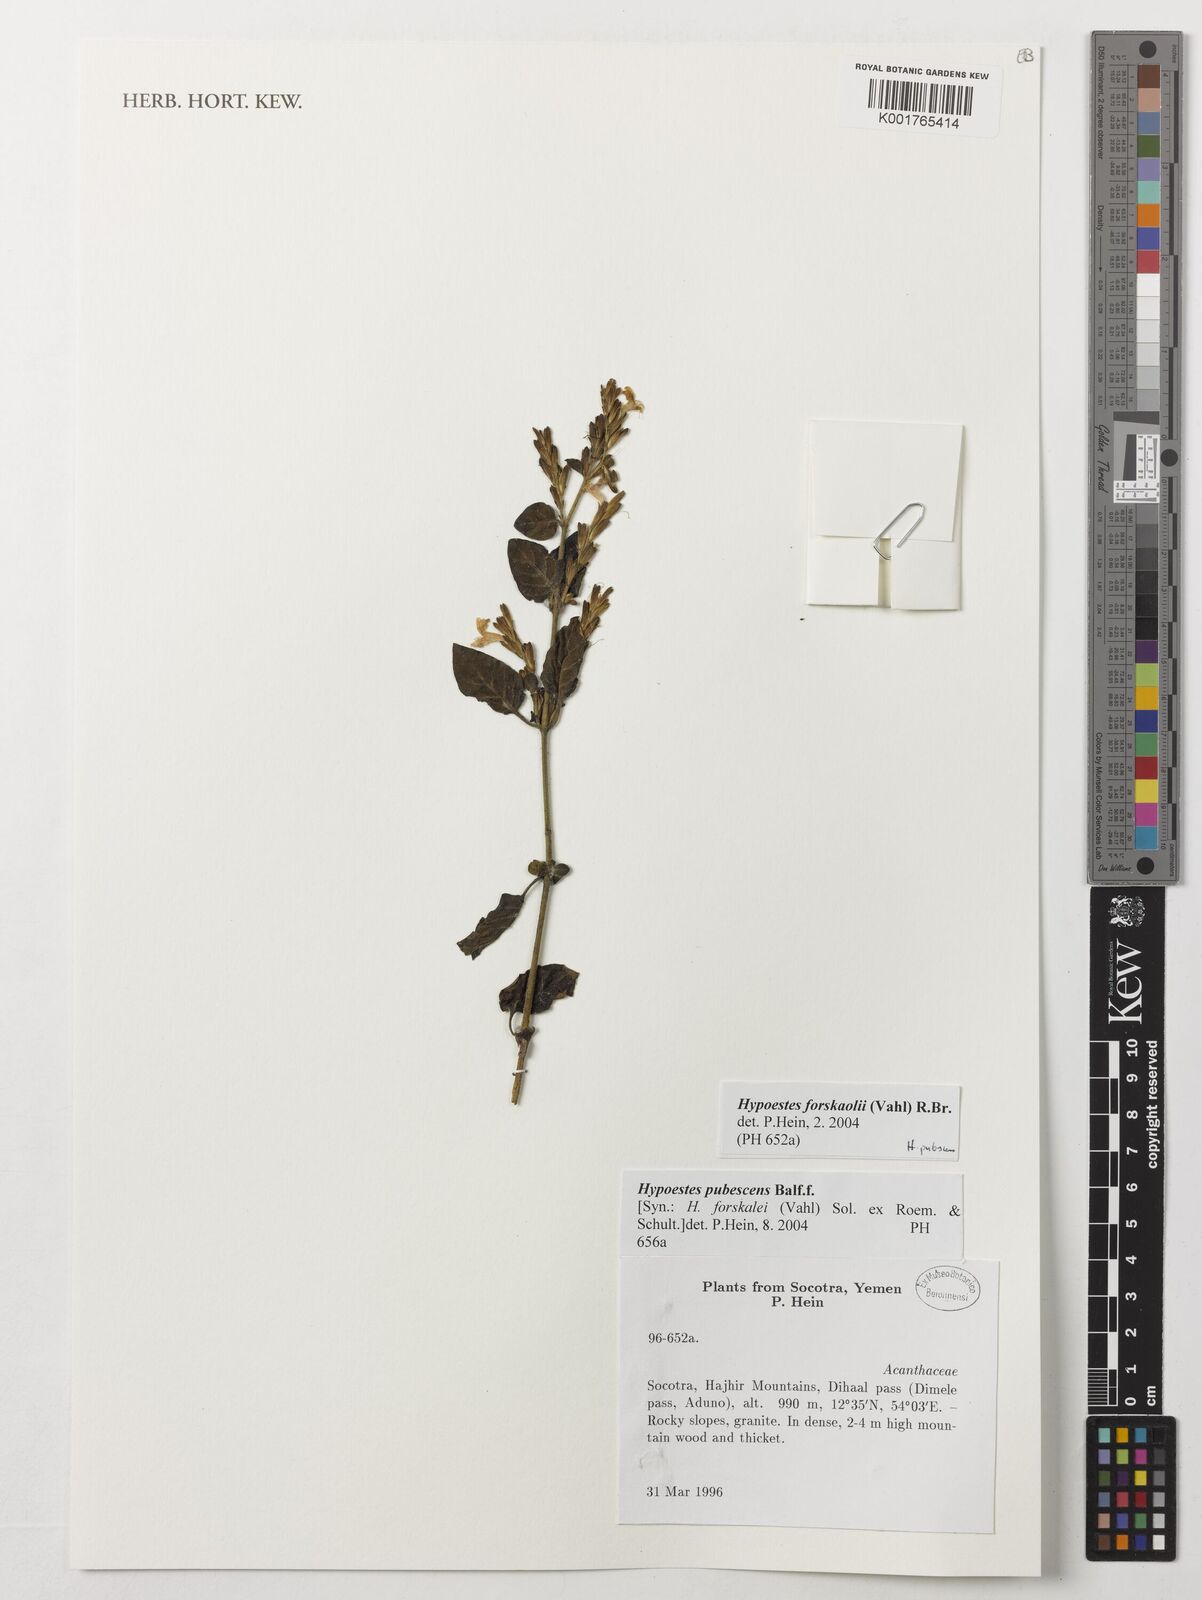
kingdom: Plantae
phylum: Tracheophyta
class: Magnoliopsida
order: Lamiales
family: Acanthaceae
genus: Hypoestes
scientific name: Hypoestes forskaolii
